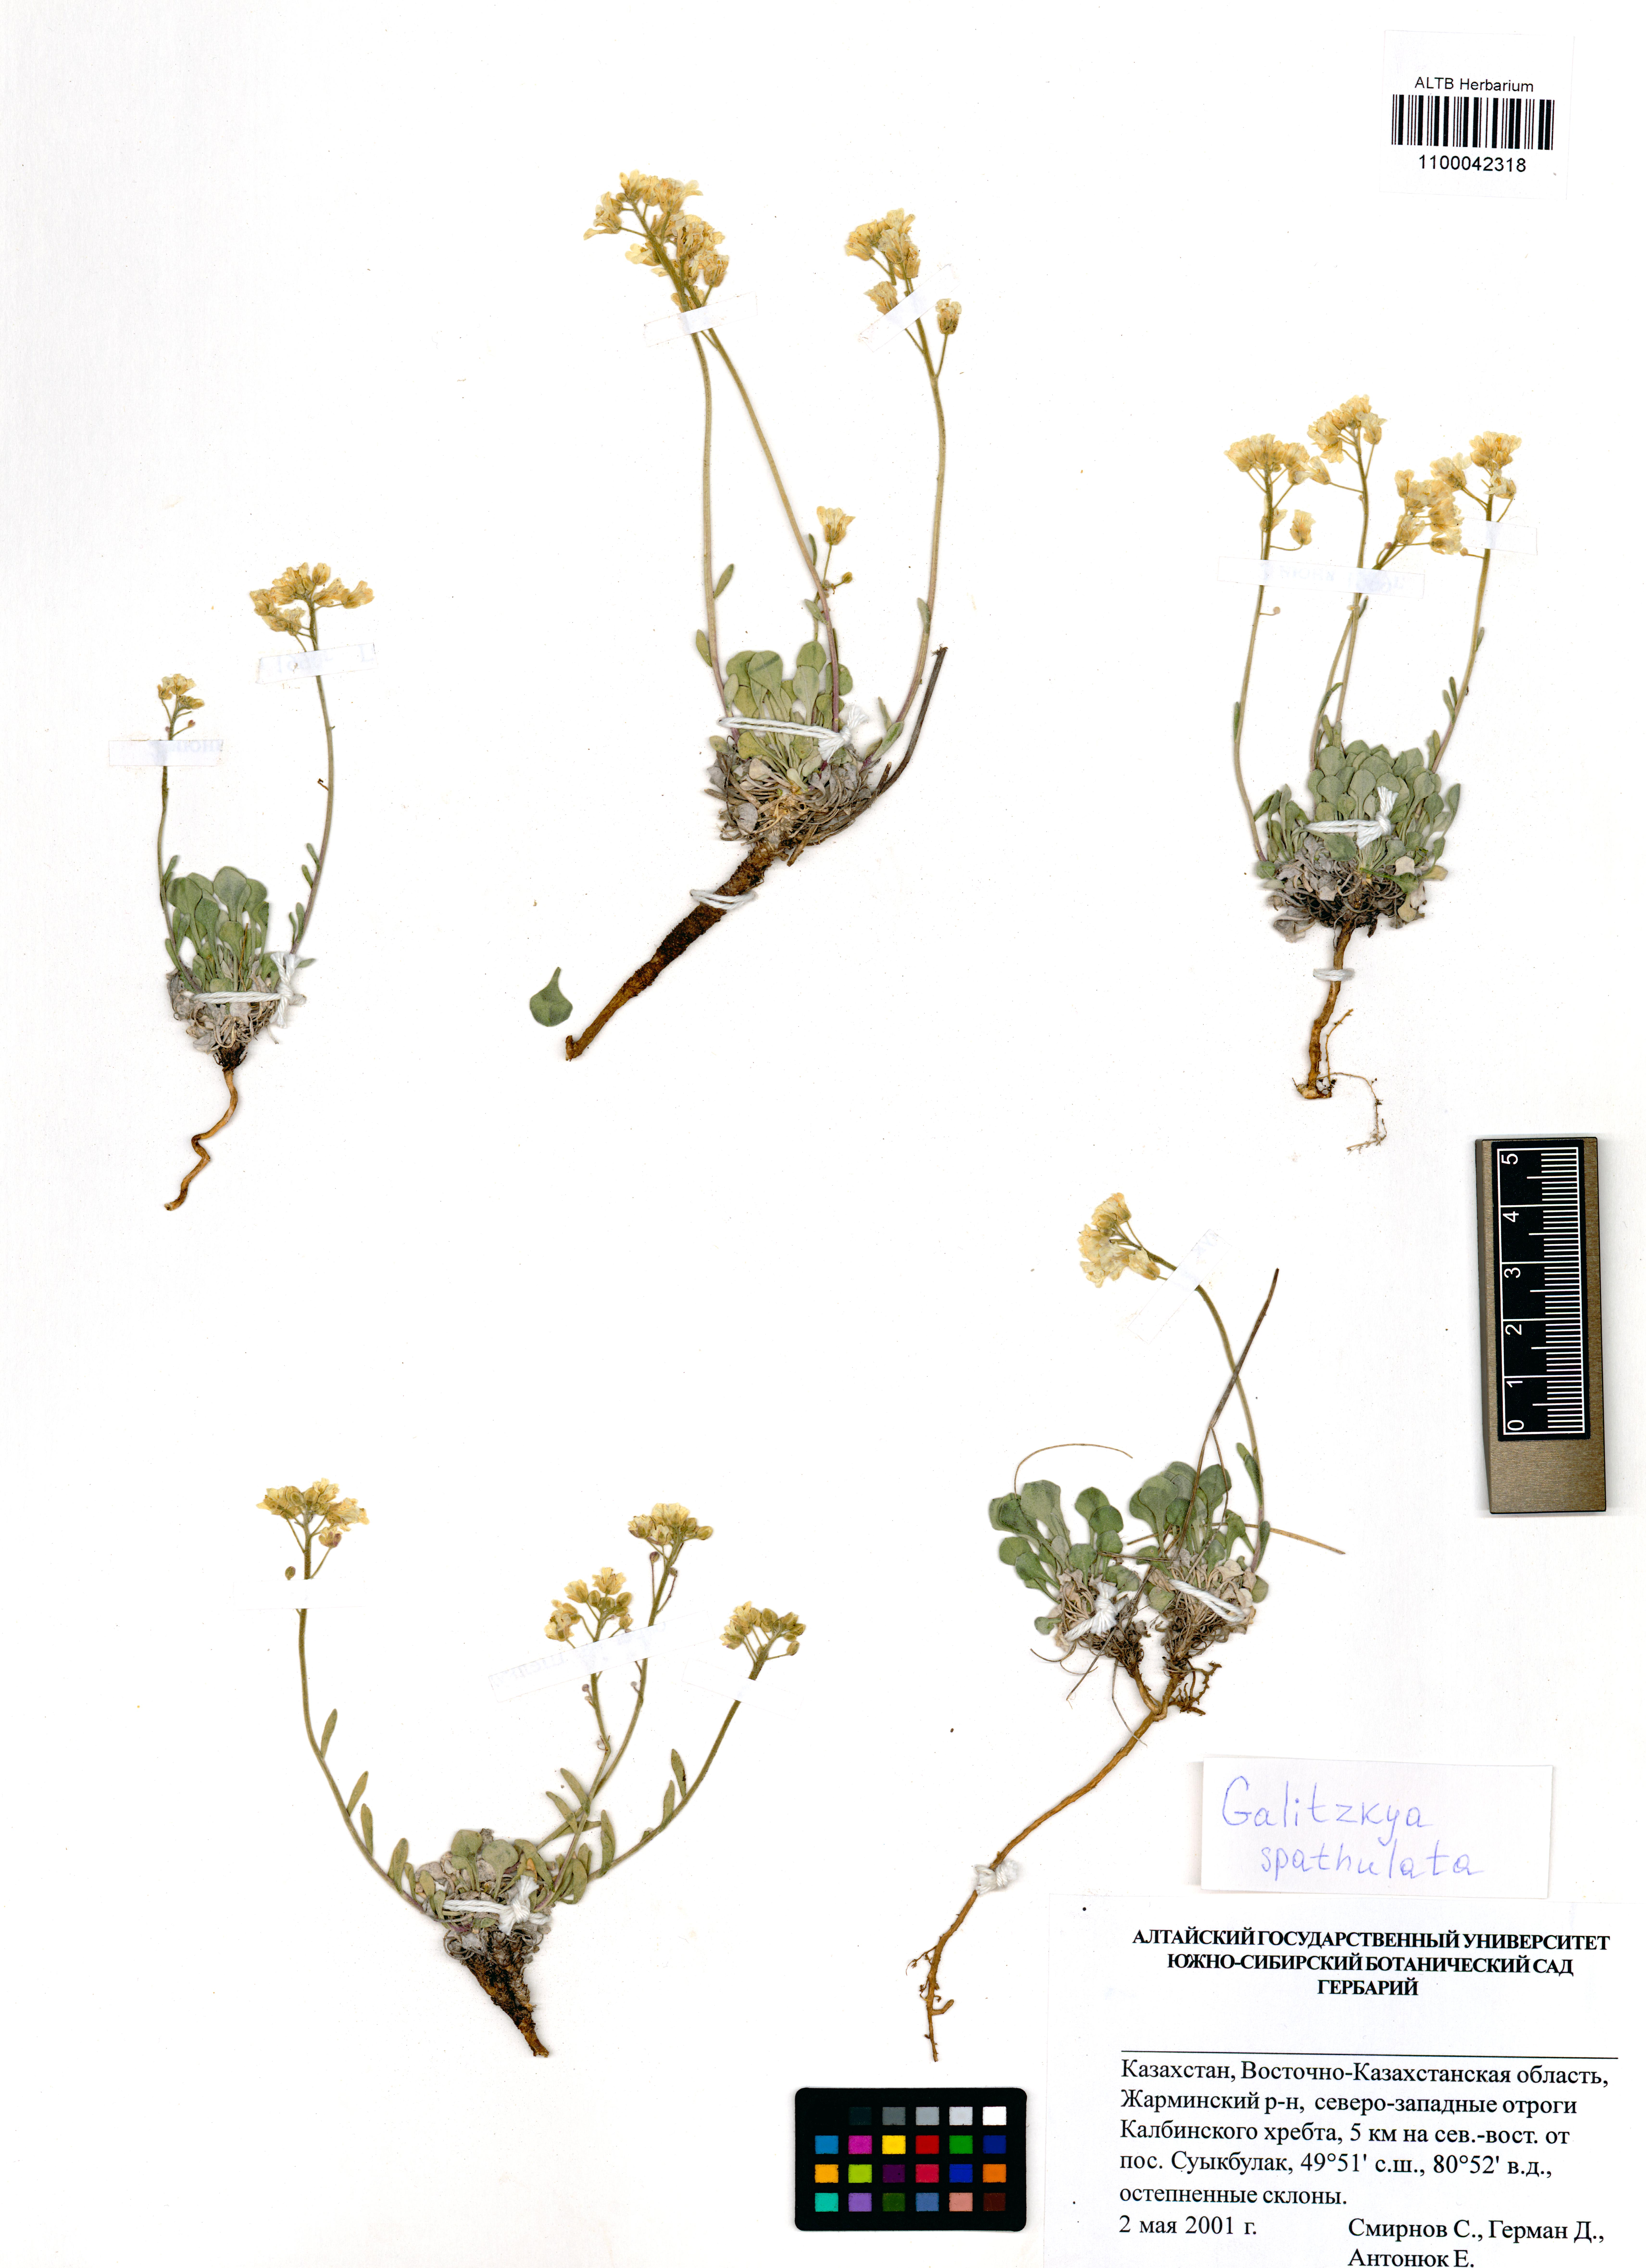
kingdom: Plantae
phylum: Tracheophyta
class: Magnoliopsida
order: Brassicales
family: Brassicaceae
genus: Galitzkya
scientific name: Galitzkya spathulata
